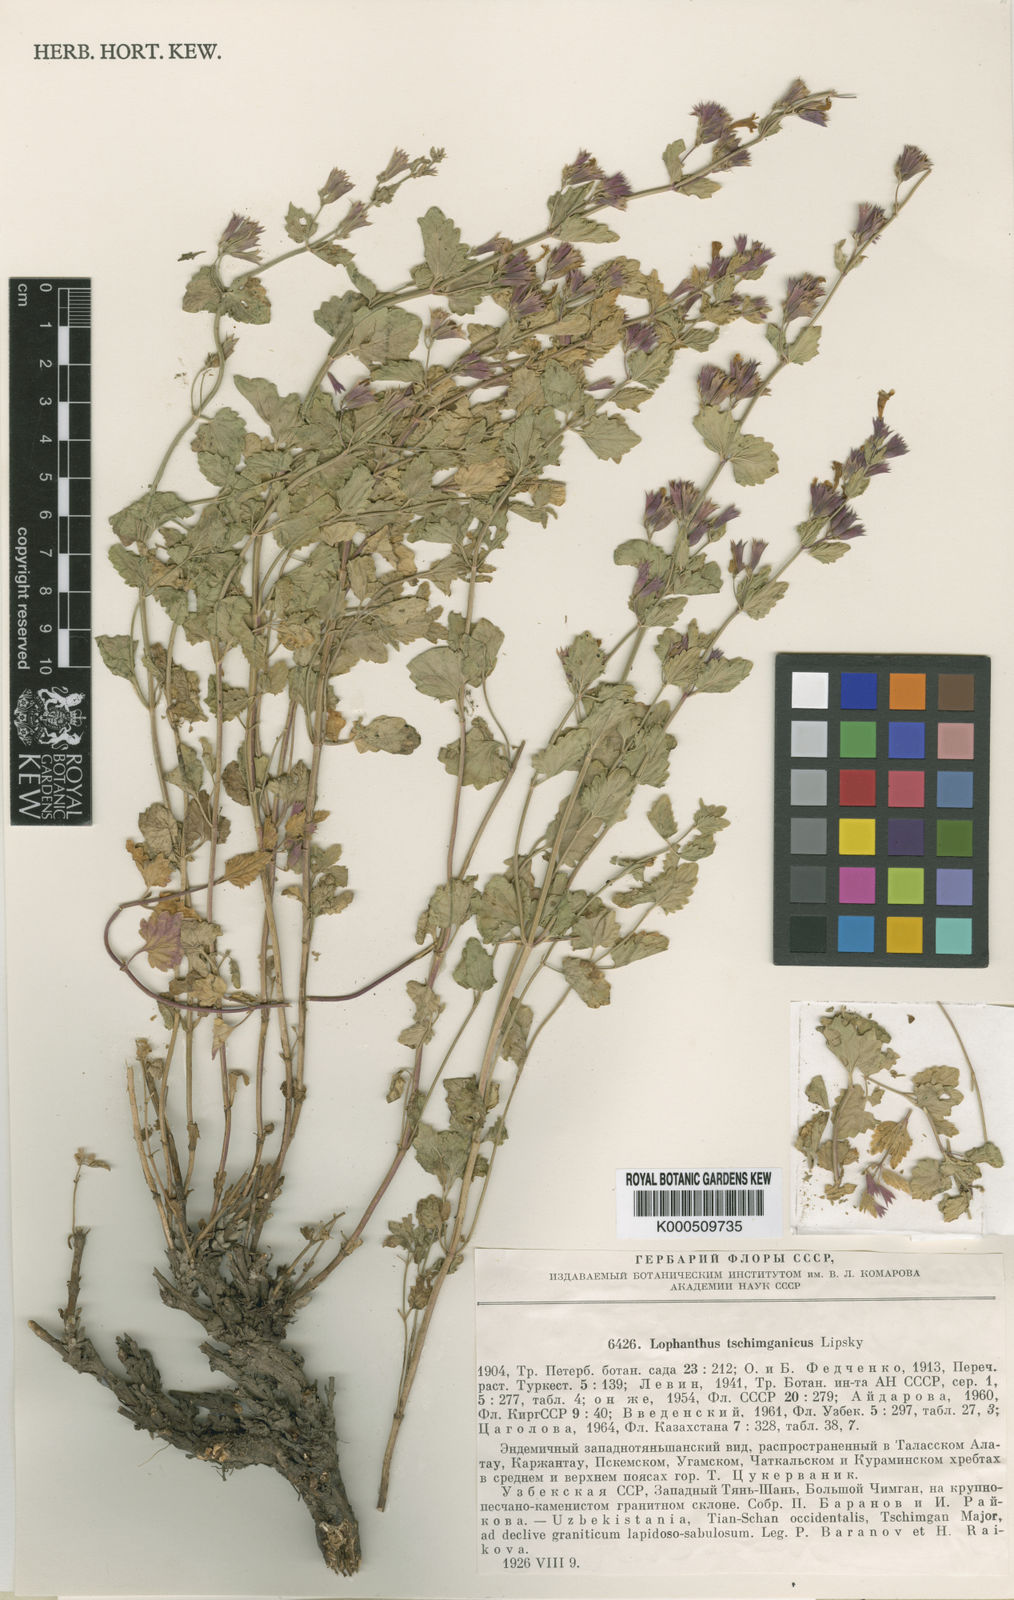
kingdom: Plantae
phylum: Tracheophyta
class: Magnoliopsida
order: Lamiales
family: Lamiaceae
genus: Nepeta
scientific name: Nepeta tschimganica
